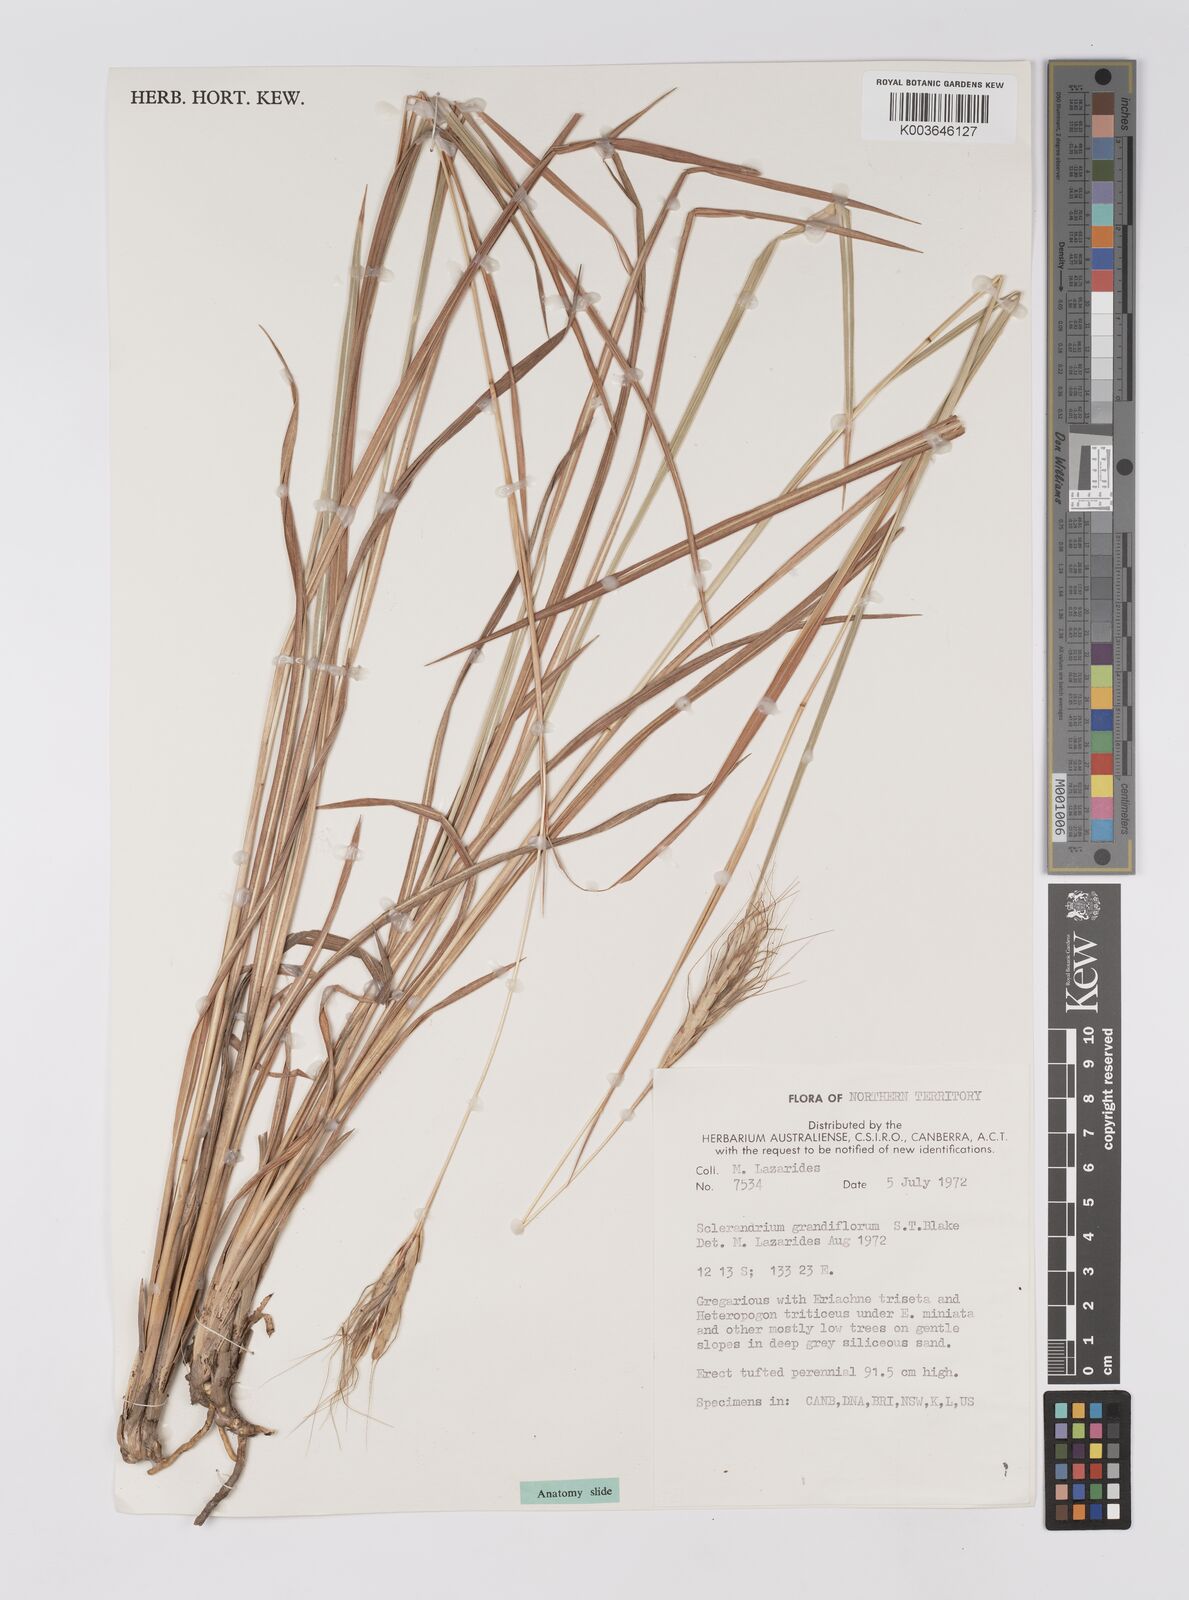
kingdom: Plantae
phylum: Tracheophyta
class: Liliopsida
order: Poales
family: Poaceae
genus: Germainia
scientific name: Germainia grandiflora
